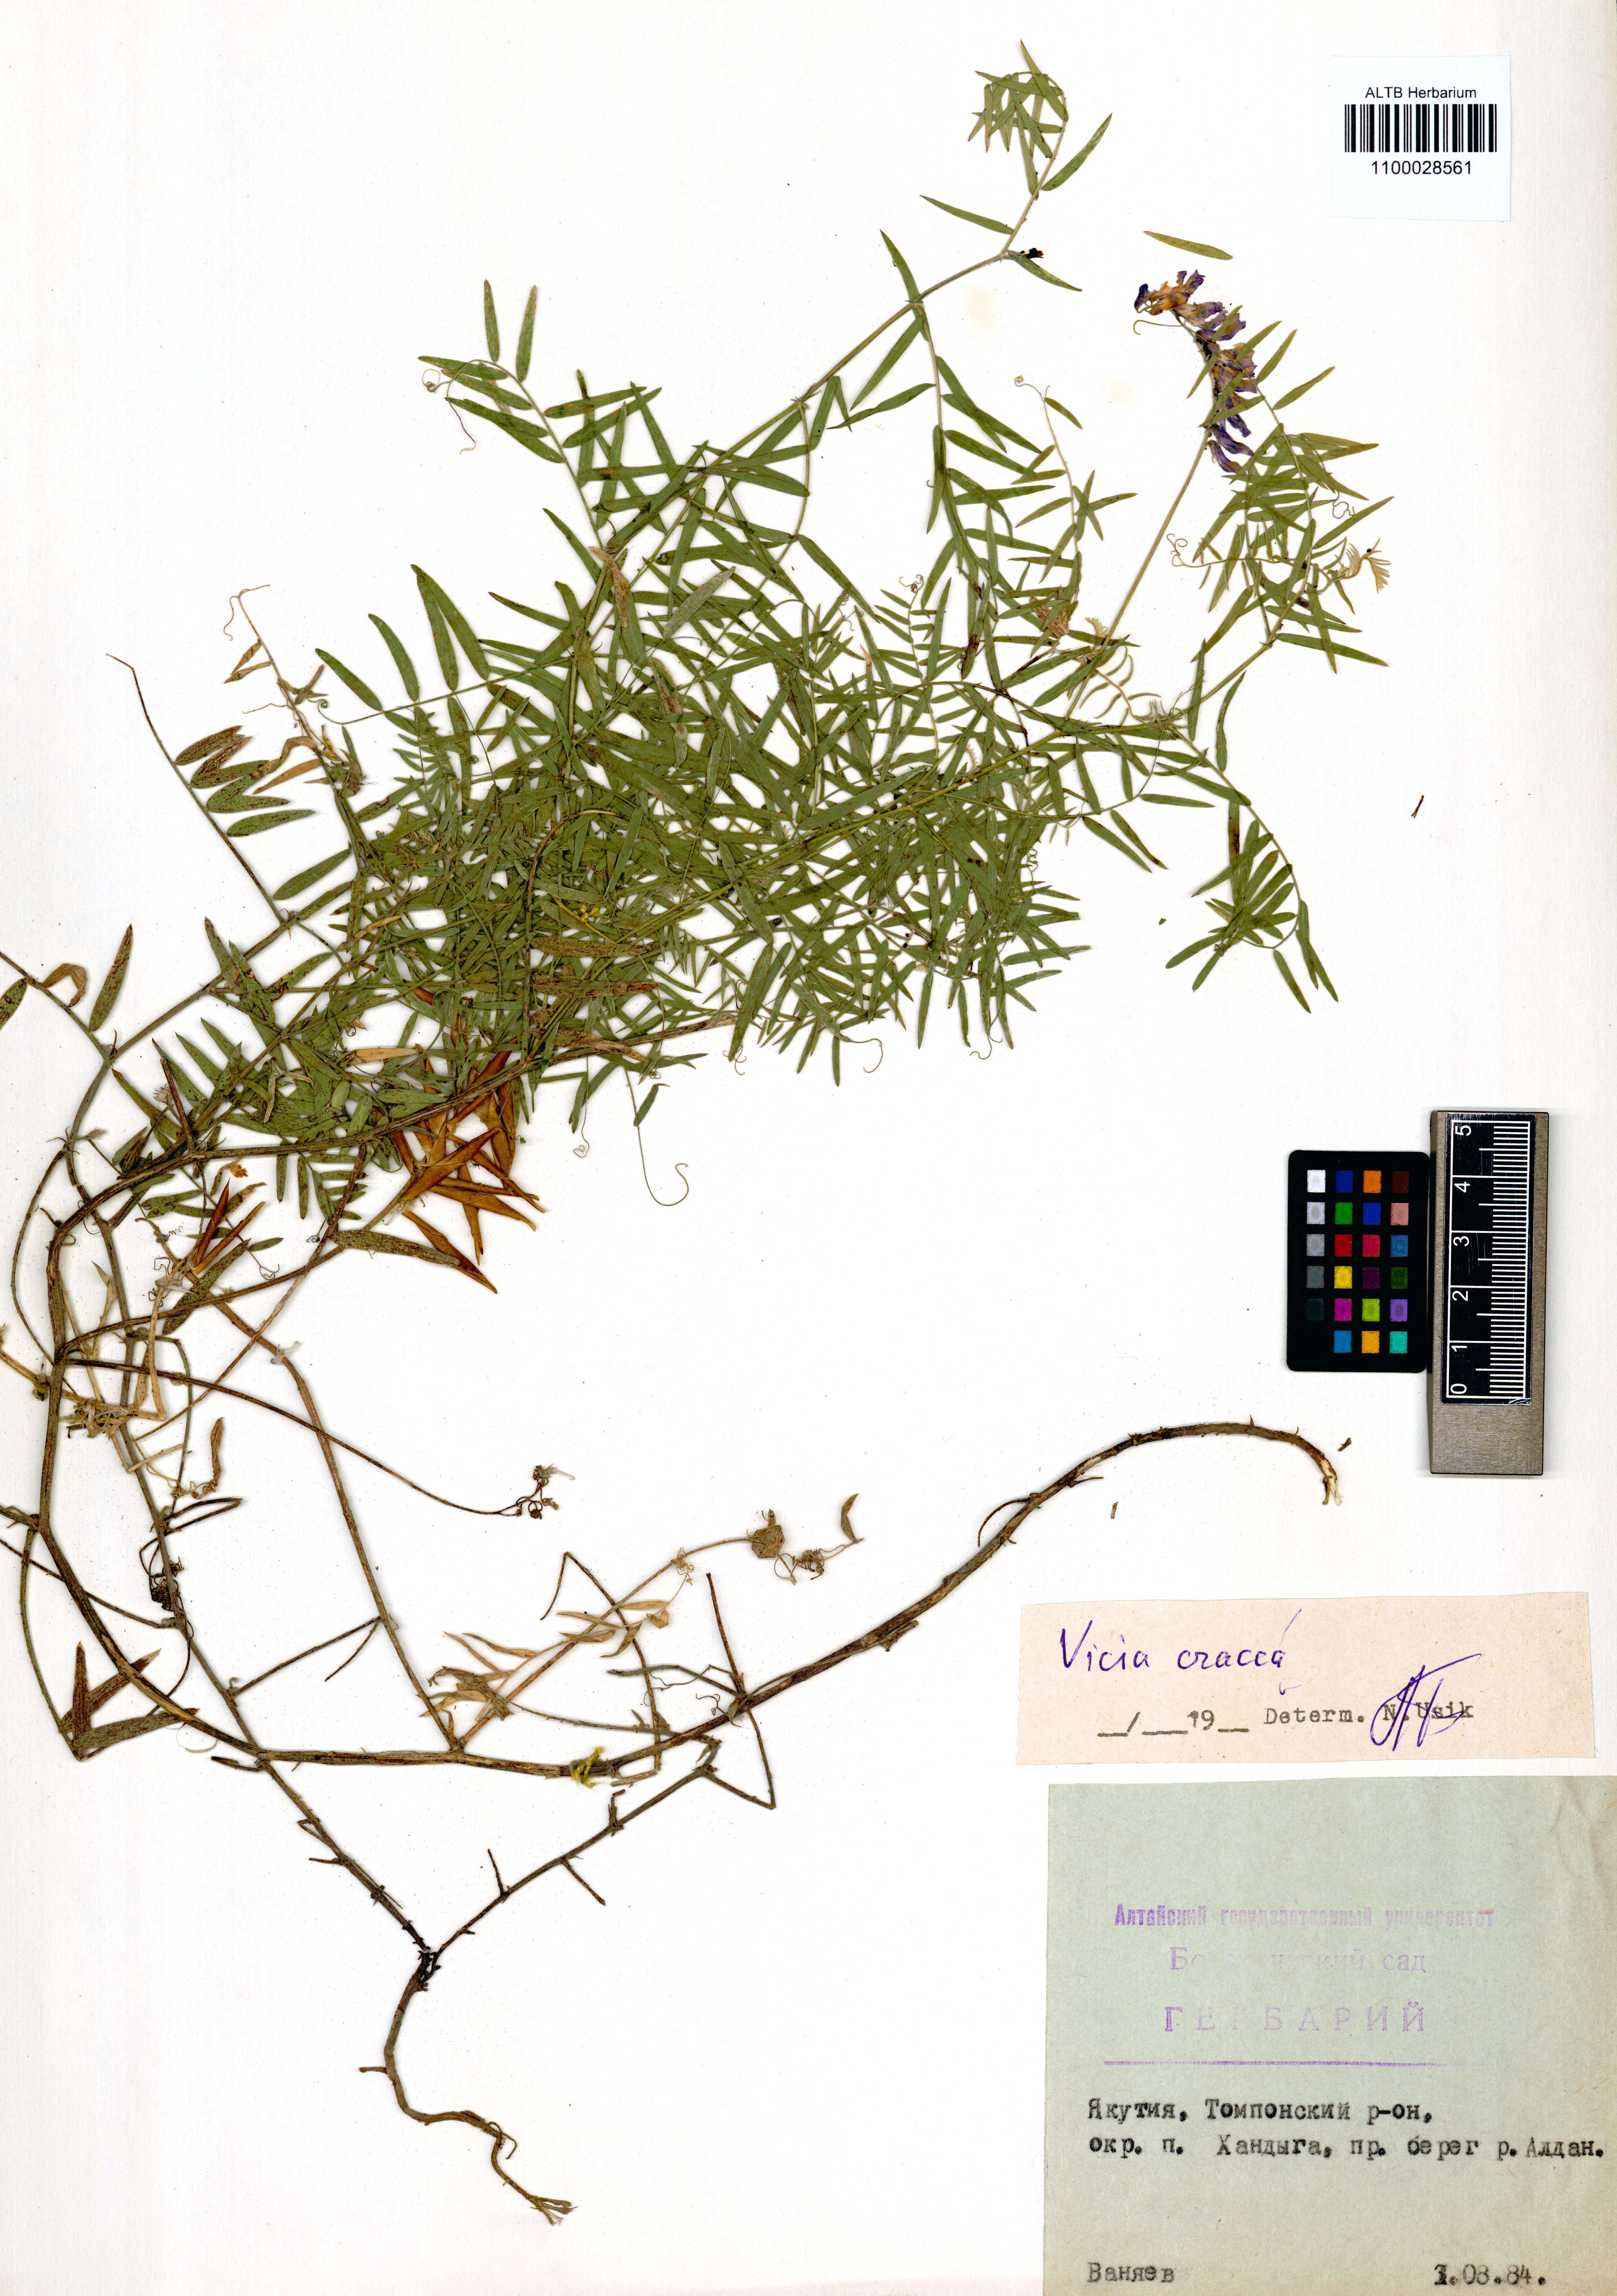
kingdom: Plantae
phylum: Tracheophyta
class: Magnoliopsida
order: Fabales
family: Fabaceae
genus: Vicia
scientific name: Vicia cracca
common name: Bird vetch
